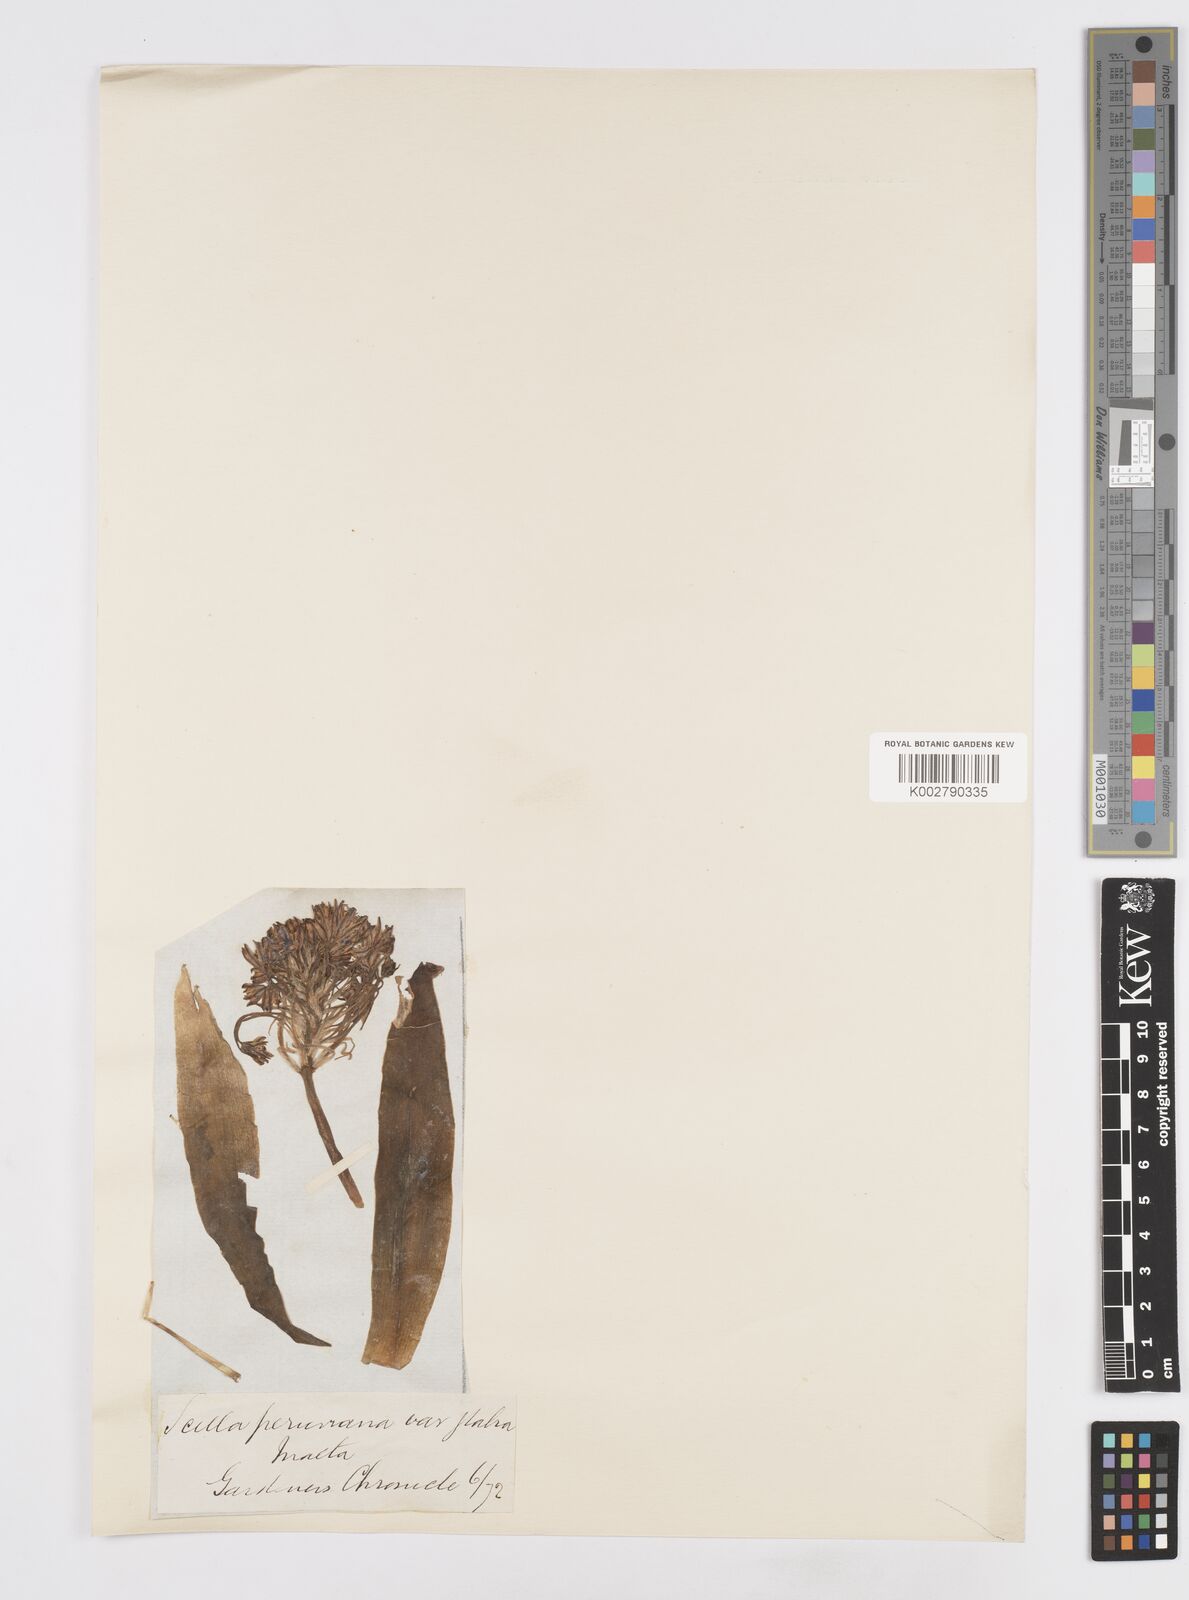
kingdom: Plantae
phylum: Tracheophyta
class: Liliopsida
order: Asparagales
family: Asparagaceae
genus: Scilla
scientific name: Scilla peruviana
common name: Portuguese squill
